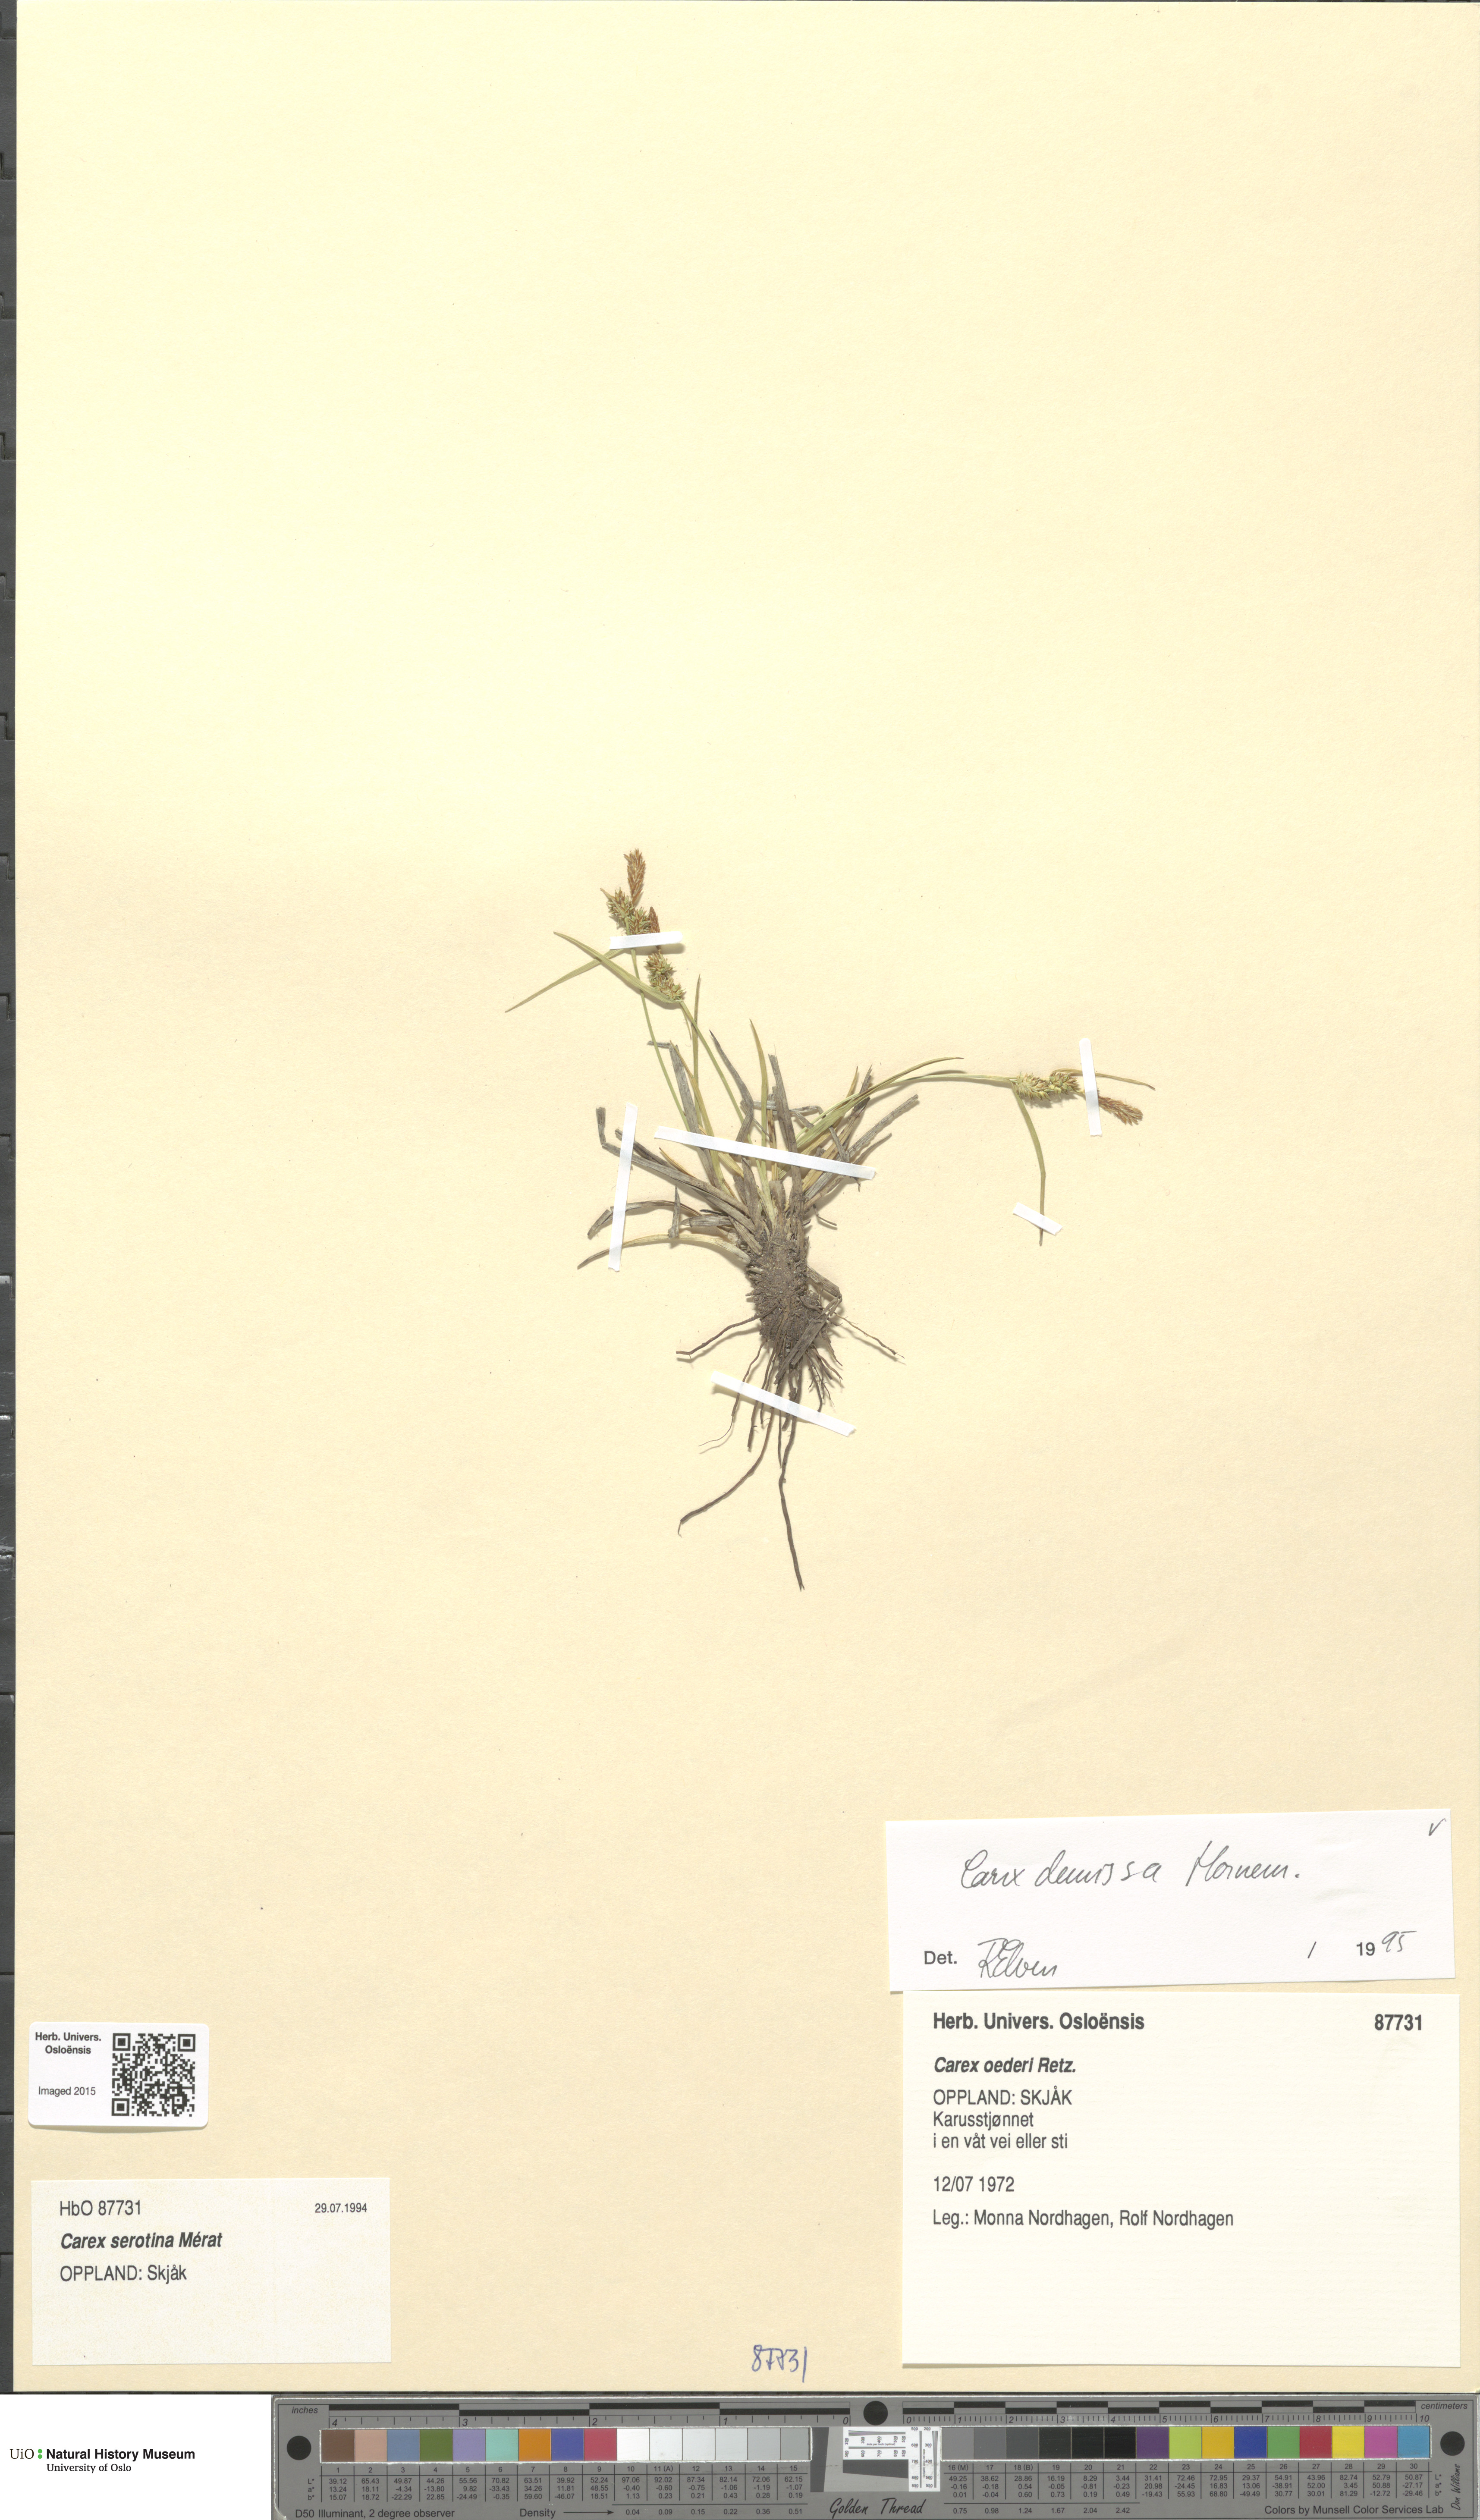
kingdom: Plantae
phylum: Tracheophyta
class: Liliopsida
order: Poales
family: Cyperaceae
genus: Carex
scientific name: Carex demissa
